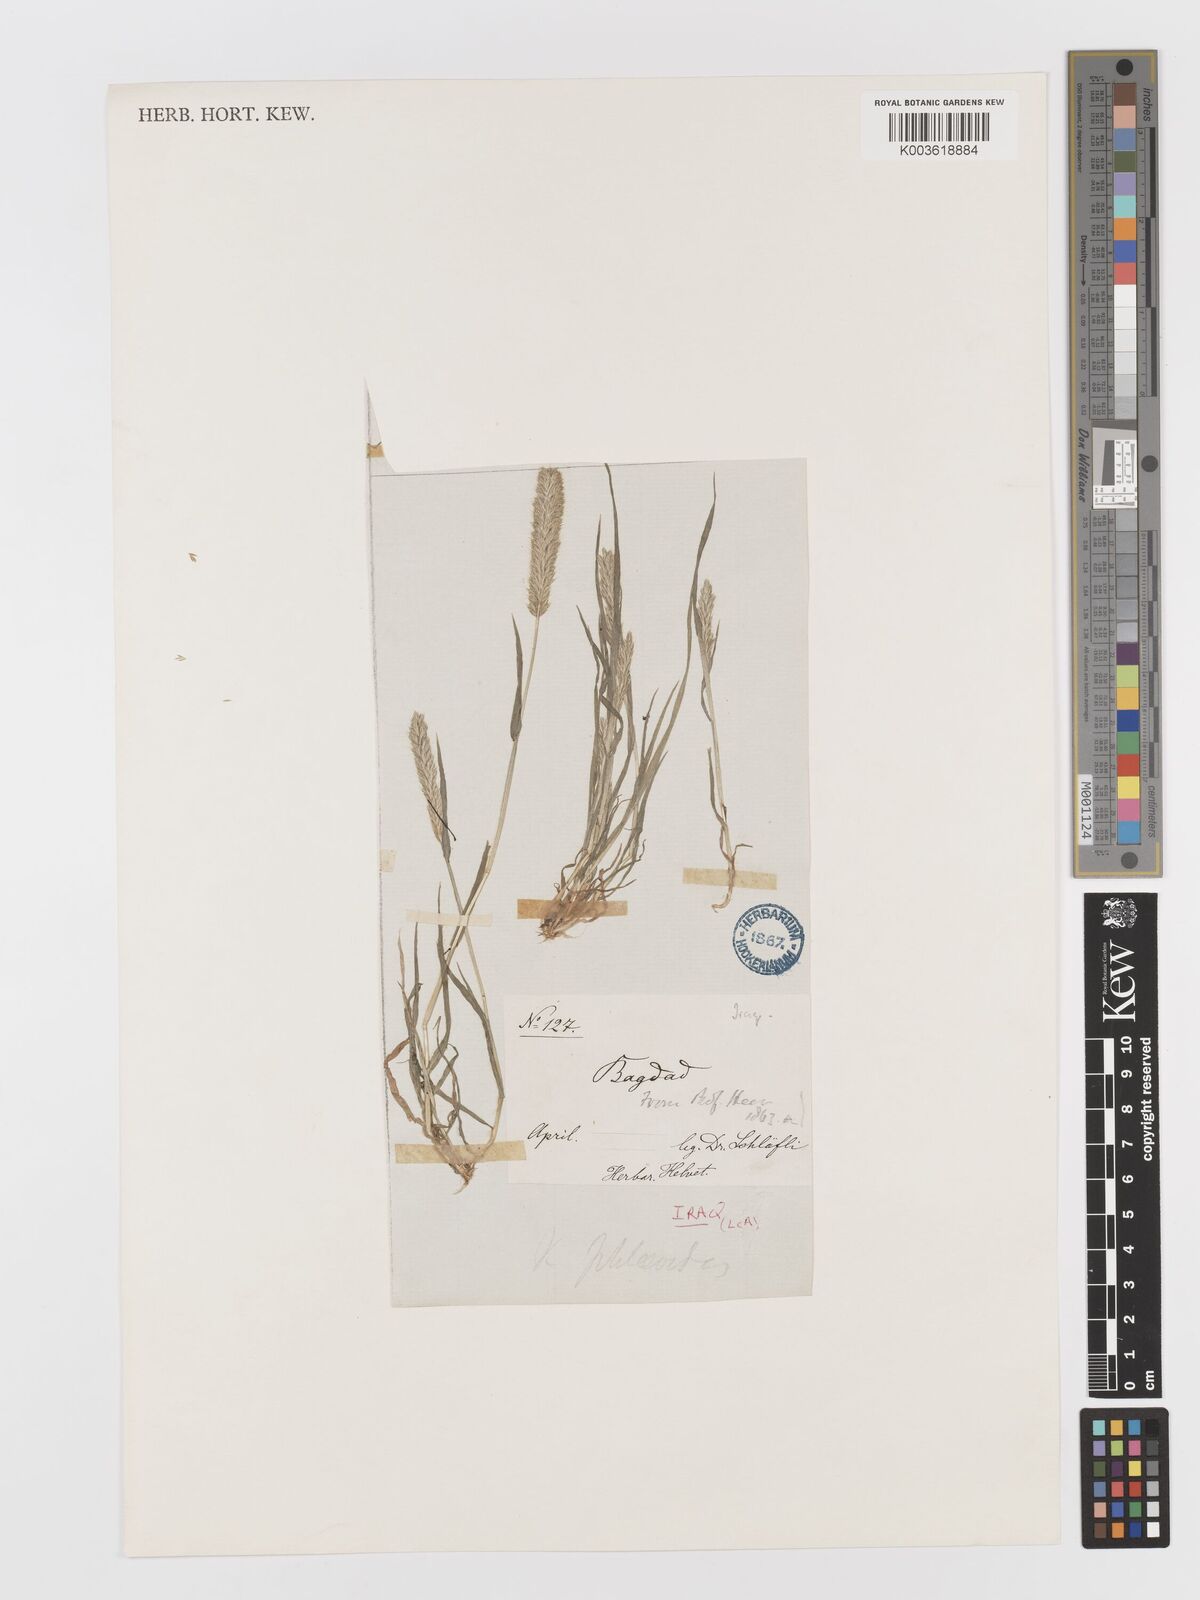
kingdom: Plantae
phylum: Tracheophyta
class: Liliopsida
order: Poales
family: Poaceae
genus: Rostraria
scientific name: Rostraria cristata
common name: Mediterranean hair-grass
